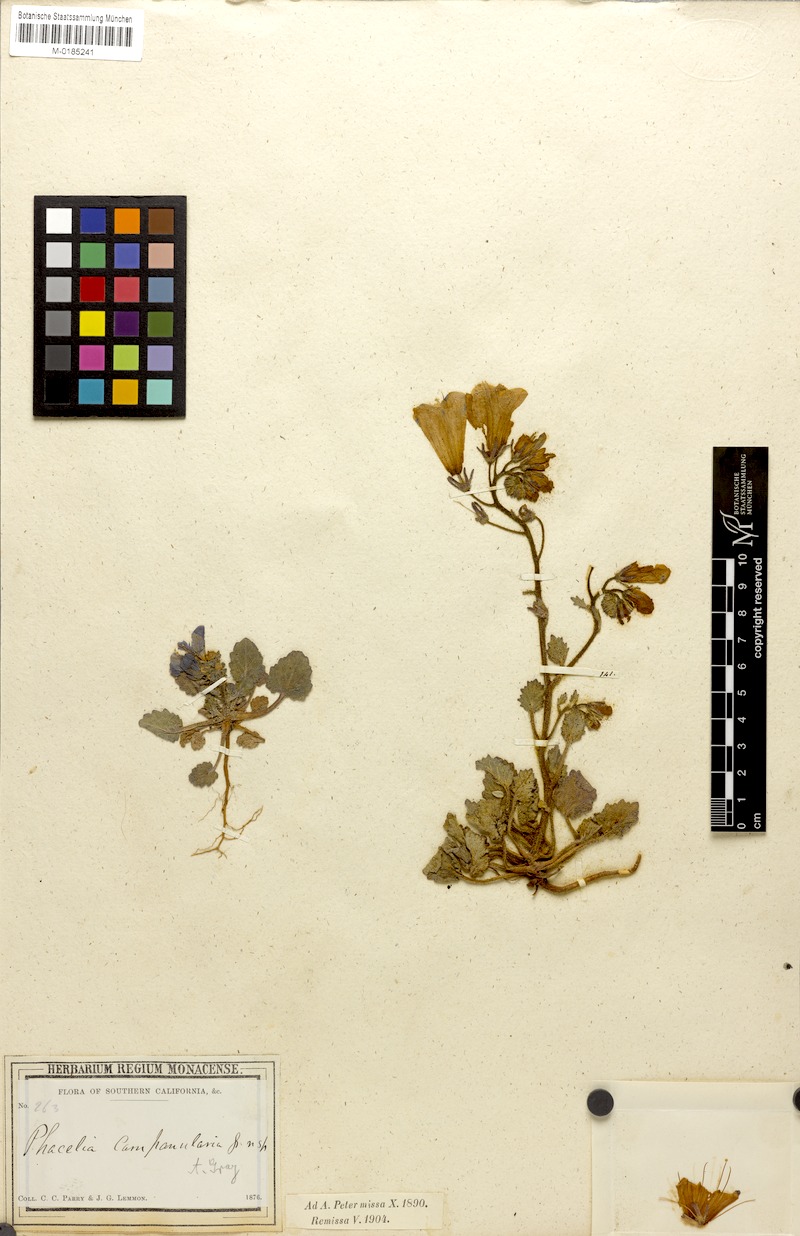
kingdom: Plantae
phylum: Tracheophyta
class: Magnoliopsida
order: Boraginales
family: Hydrophyllaceae
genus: Phacelia
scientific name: Phacelia campanularia
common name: California bluebell
